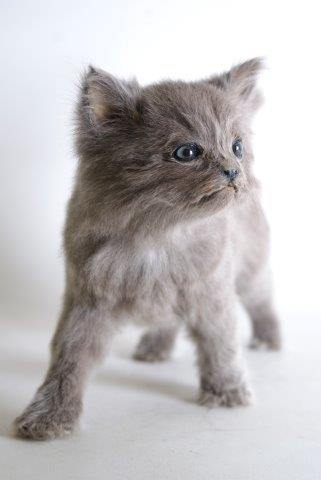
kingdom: Animalia
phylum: Chordata
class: Mammalia
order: Carnivora
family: Felidae
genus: Felis
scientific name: Felis catus
